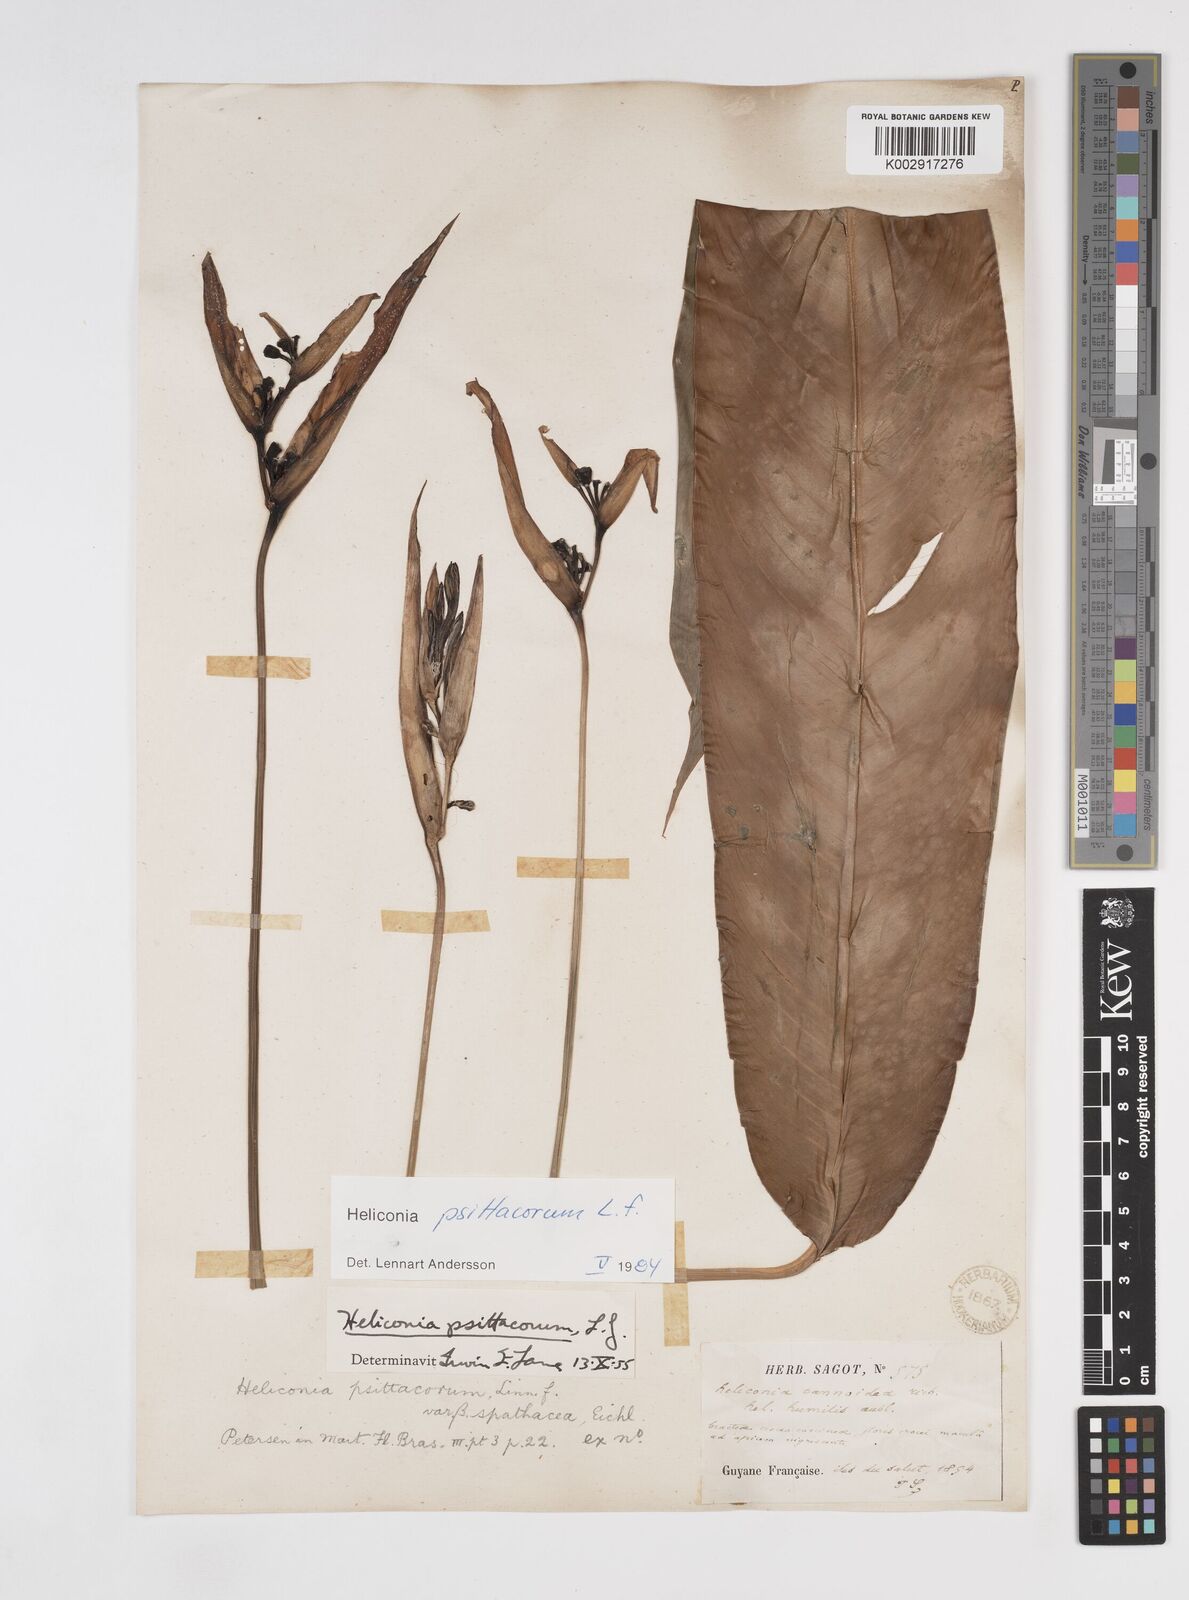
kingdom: Plantae
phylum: Tracheophyta
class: Liliopsida
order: Zingiberales
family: Heliconiaceae
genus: Heliconia
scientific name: Heliconia psittacorum
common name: Parrot's-flower
